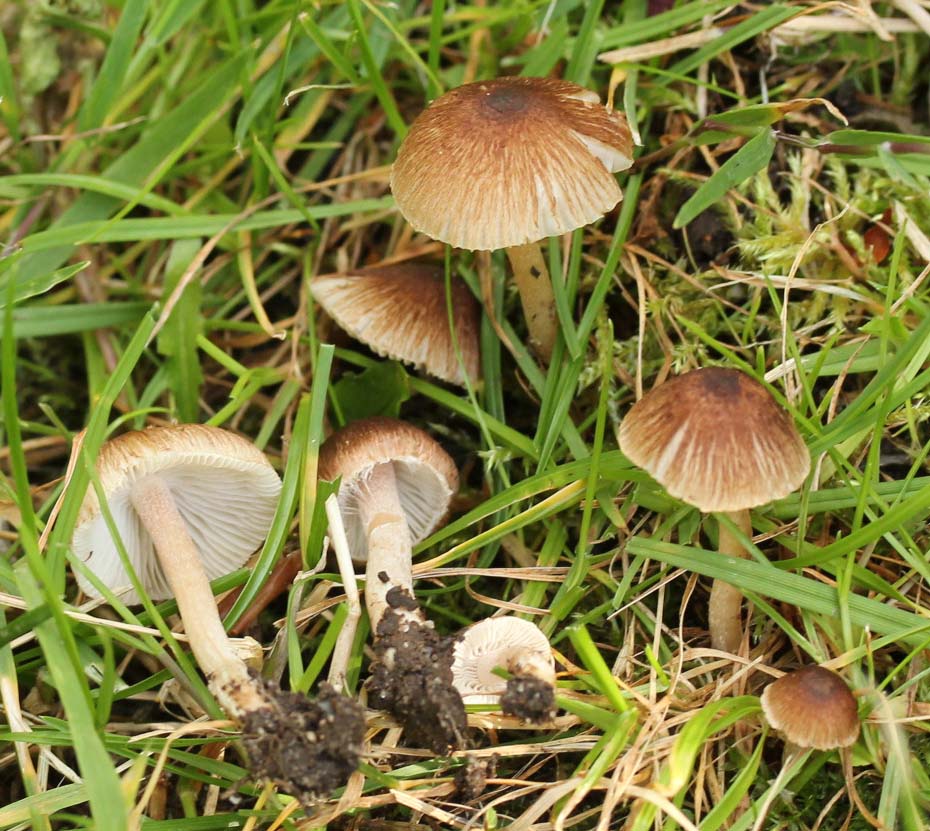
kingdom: Fungi
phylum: Basidiomycota
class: Agaricomycetes
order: Agaricales
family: Inocybaceae
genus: Inocybe
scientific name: Inocybe
